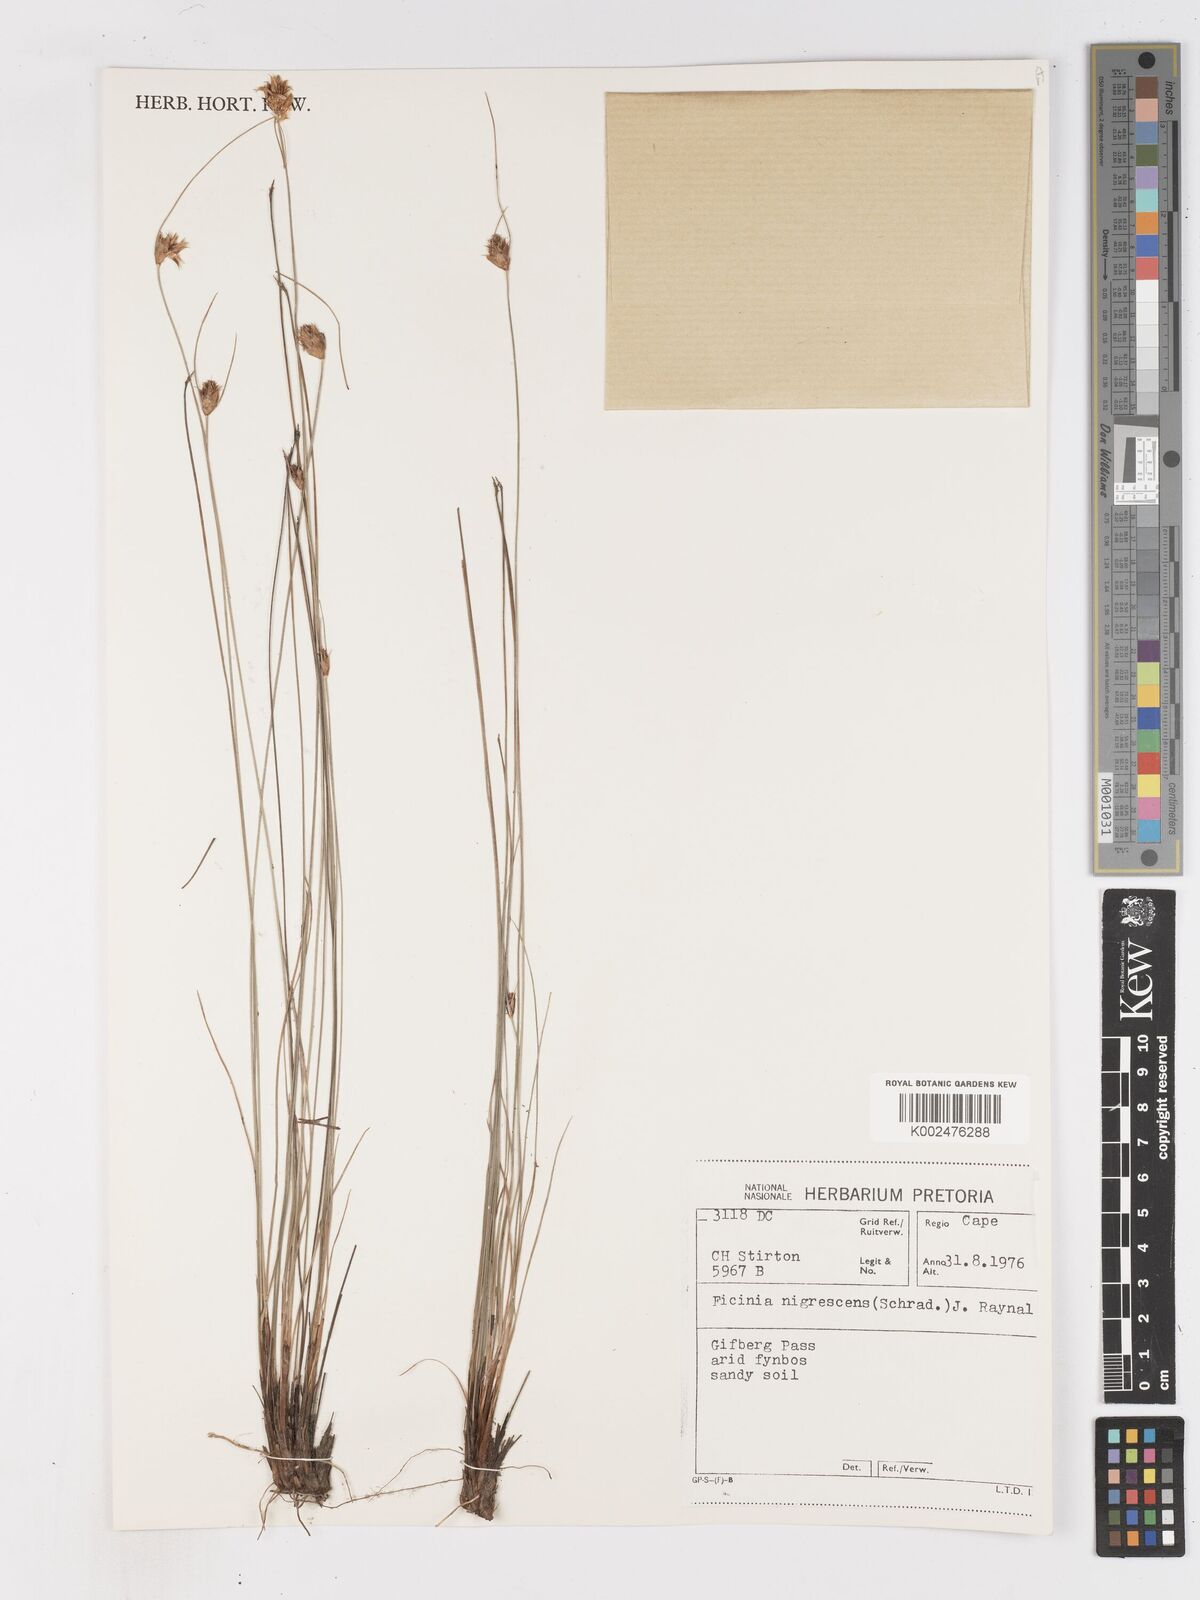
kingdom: Plantae
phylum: Tracheophyta
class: Liliopsida
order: Poales
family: Cyperaceae
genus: Ficinia
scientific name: Ficinia nigrescens
